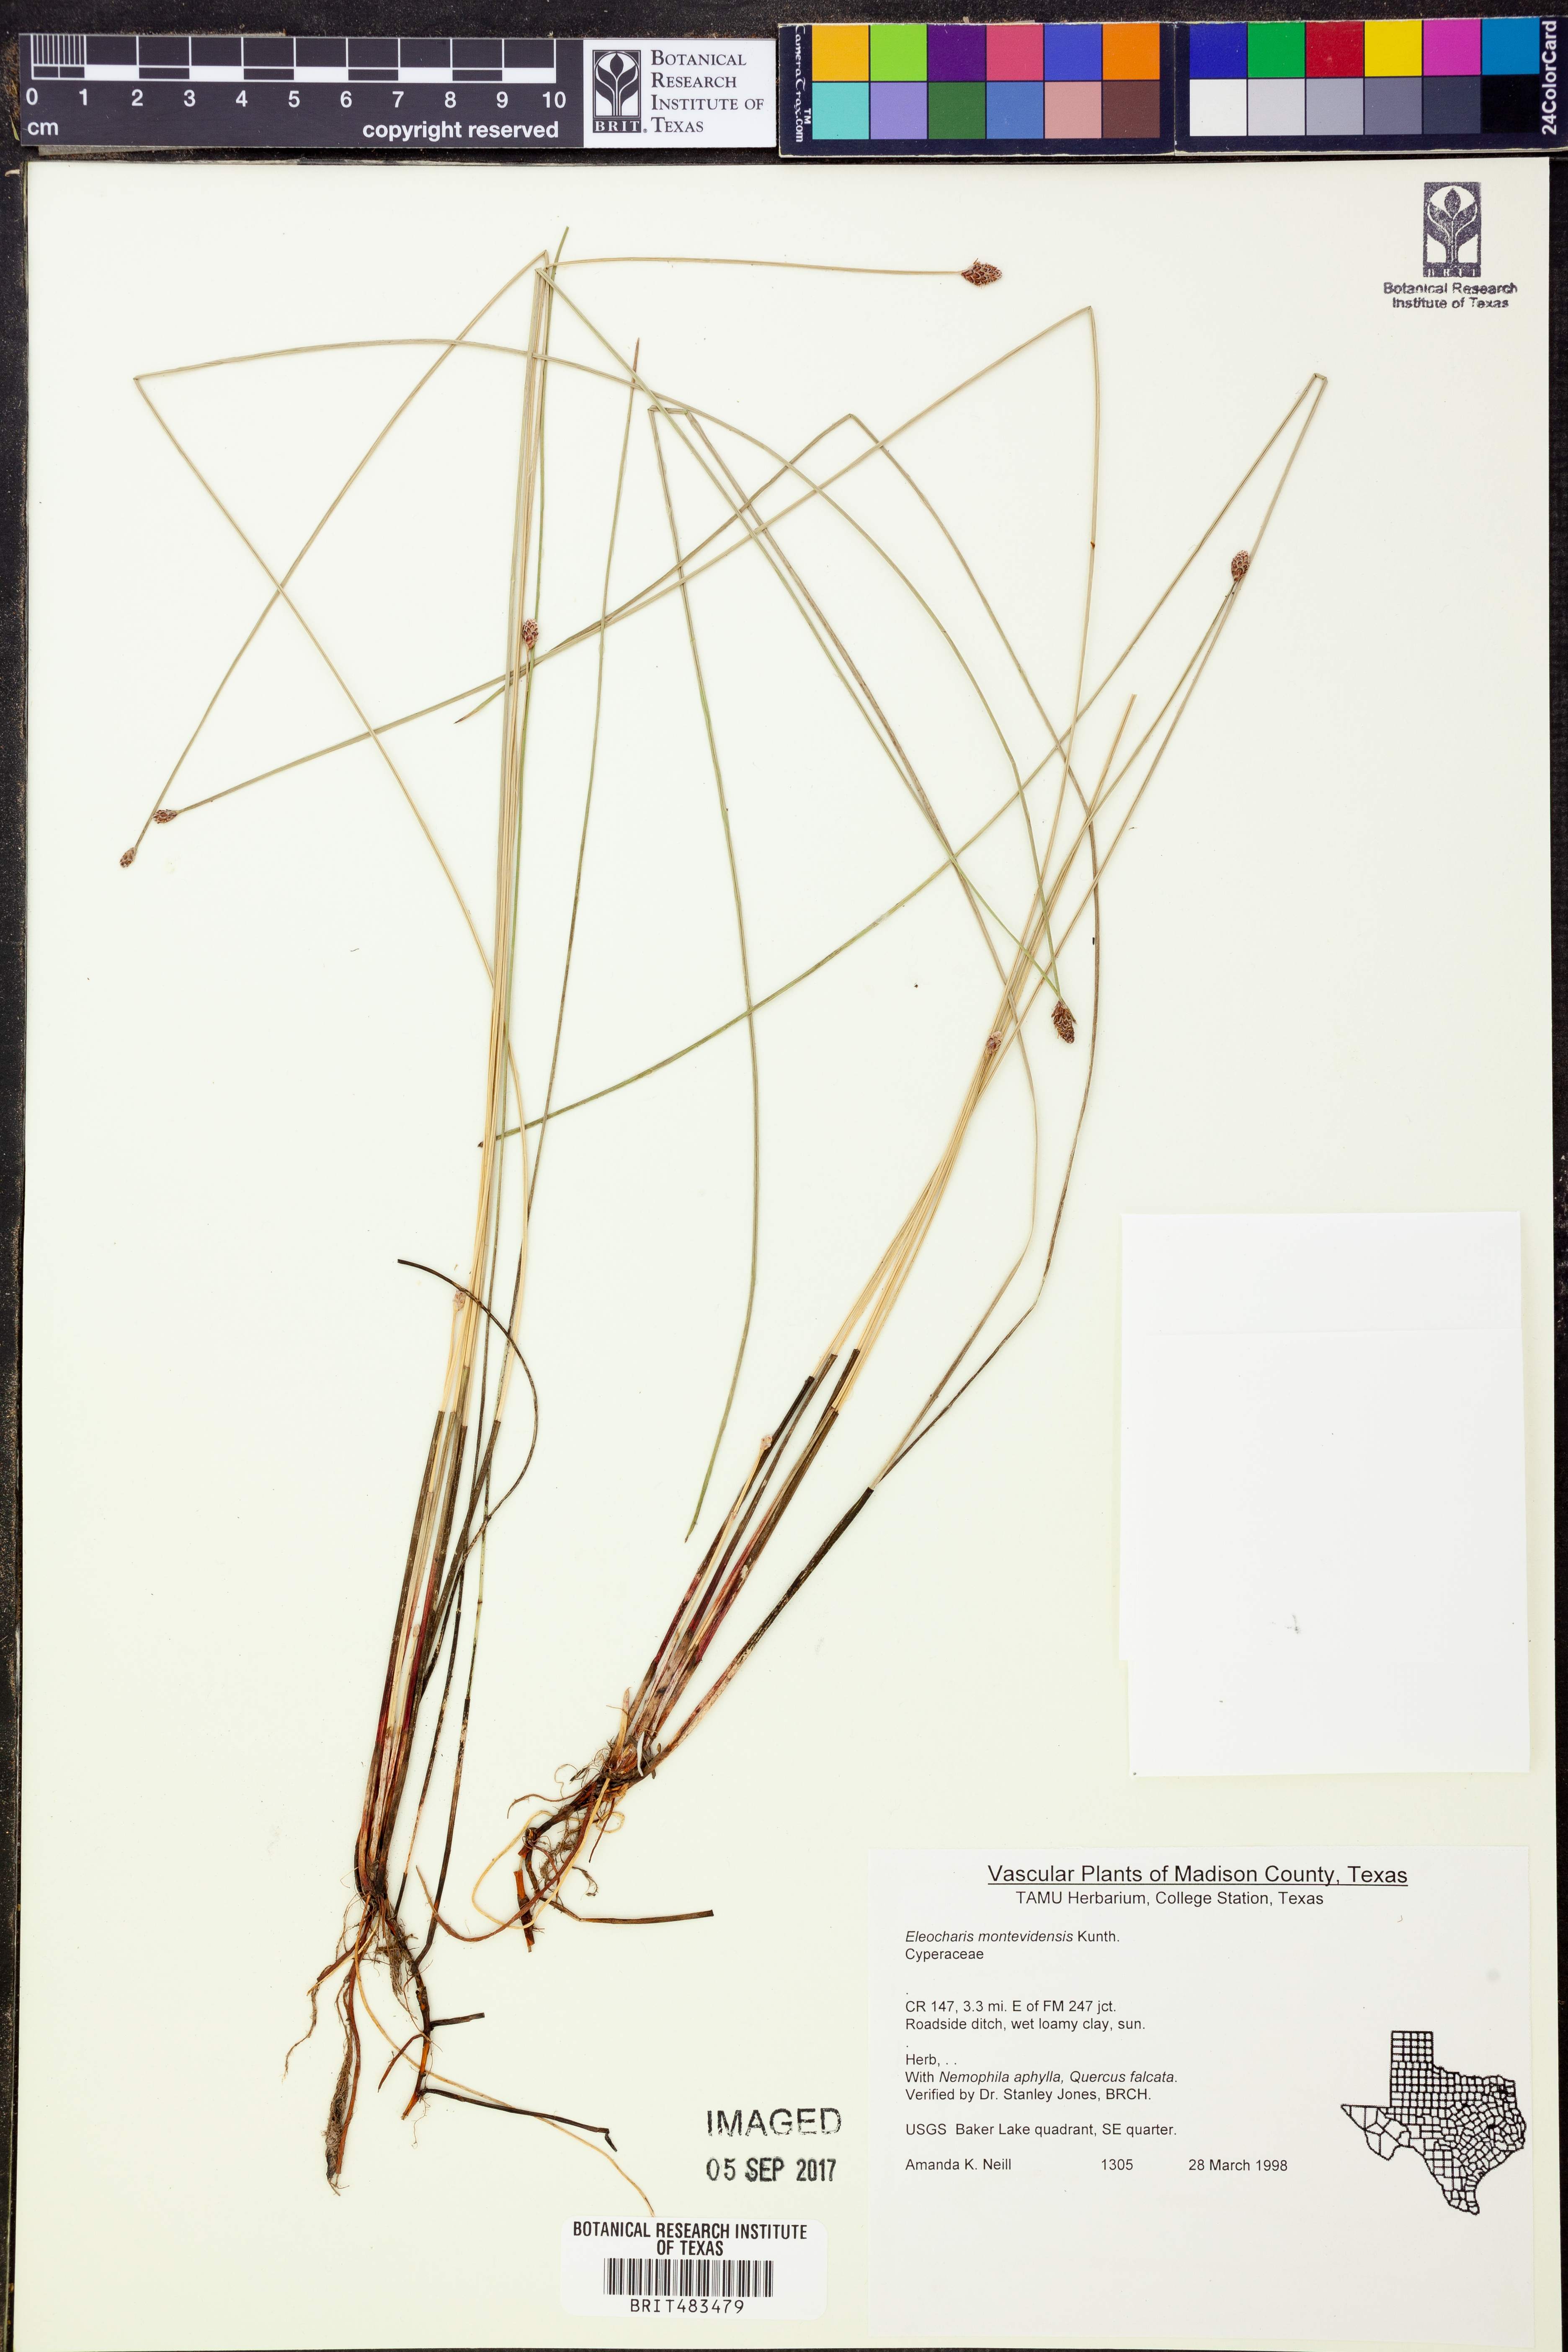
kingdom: Plantae
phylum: Tracheophyta
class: Liliopsida
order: Poales
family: Cyperaceae
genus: Eleocharis
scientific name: Eleocharis montevidensis
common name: Sand spike-rush
